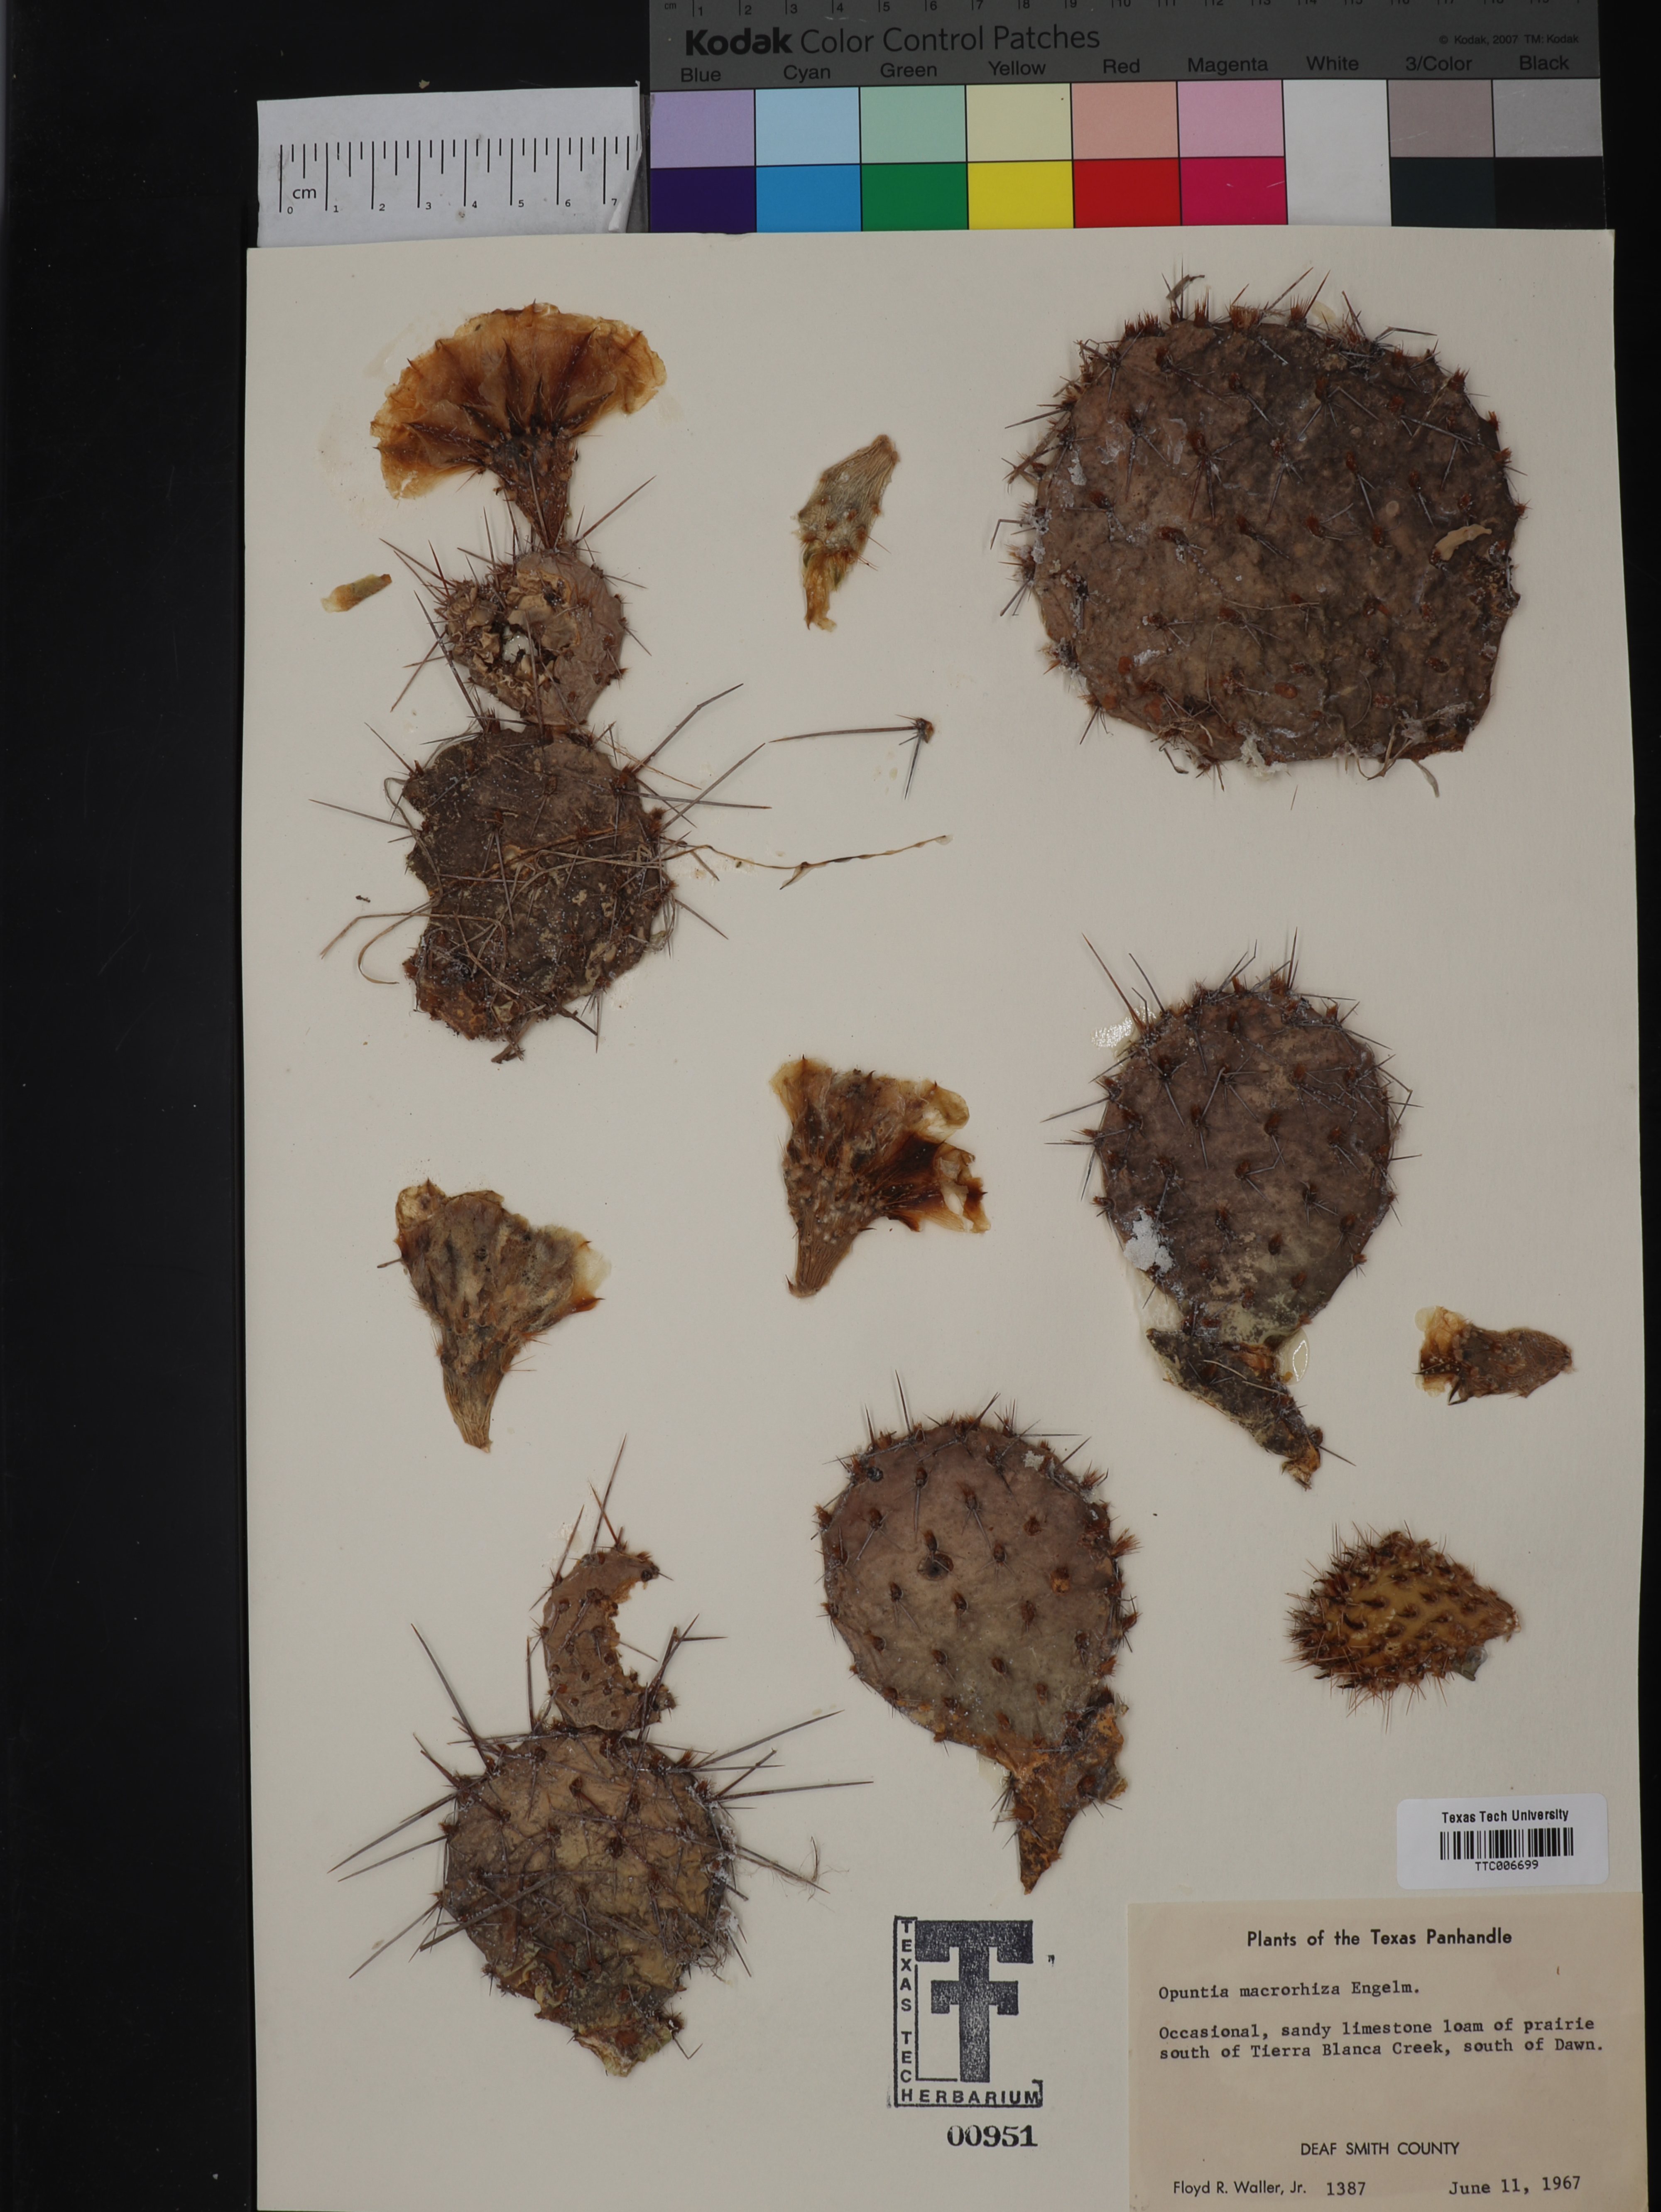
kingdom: Plantae
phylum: Tracheophyta
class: Magnoliopsida
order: Caryophyllales
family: Cactaceae
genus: Opuntia
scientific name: Opuntia macrorhiza
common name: Grassland pricklypear
